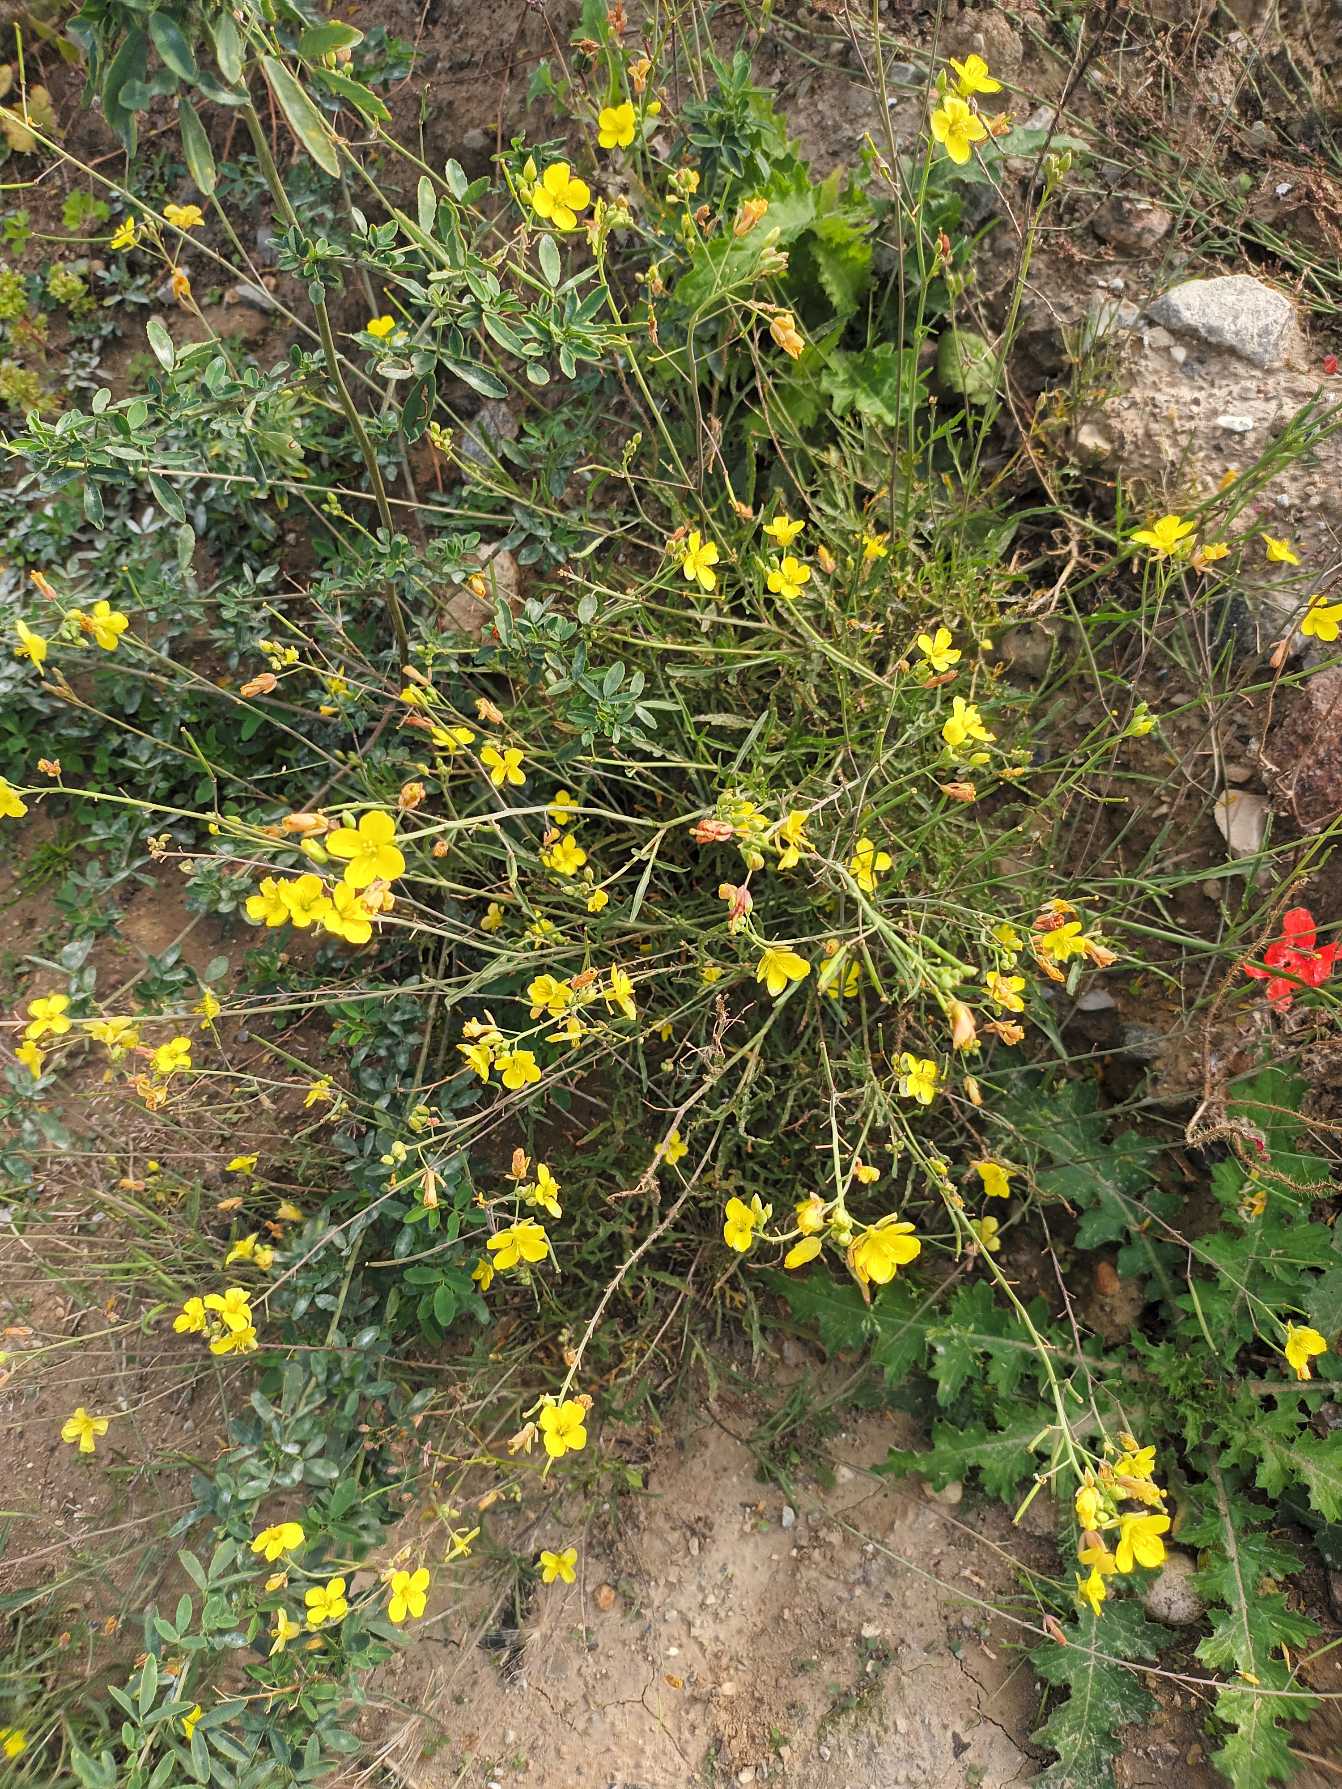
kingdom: Plantae
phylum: Tracheophyta
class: Magnoliopsida
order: Brassicales
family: Brassicaceae
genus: Diplotaxis
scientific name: Diplotaxis tenuifolia
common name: Sandsennep
